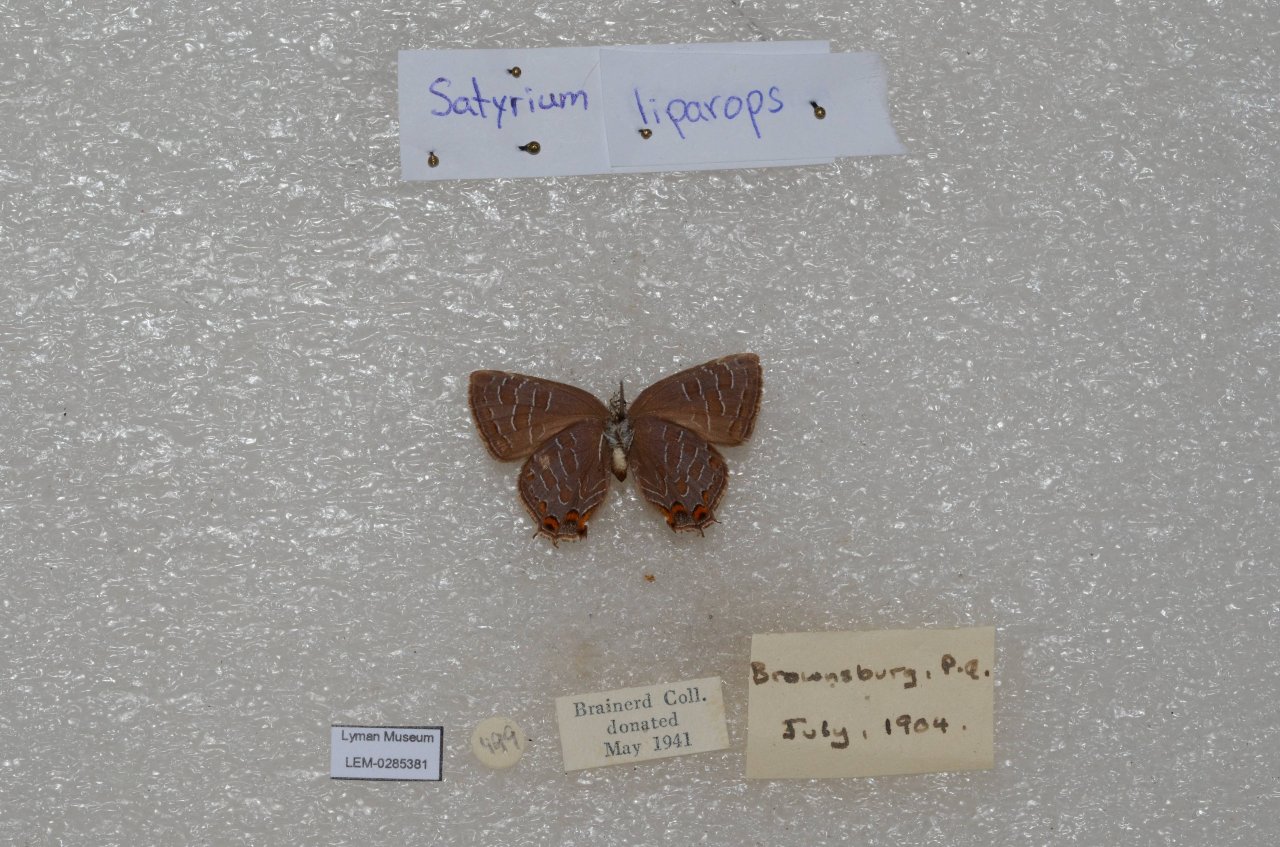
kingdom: Animalia
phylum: Arthropoda
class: Insecta
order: Lepidoptera
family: Lycaenidae
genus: Satyrium
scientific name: Satyrium liparops
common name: Striped Hairstreak
